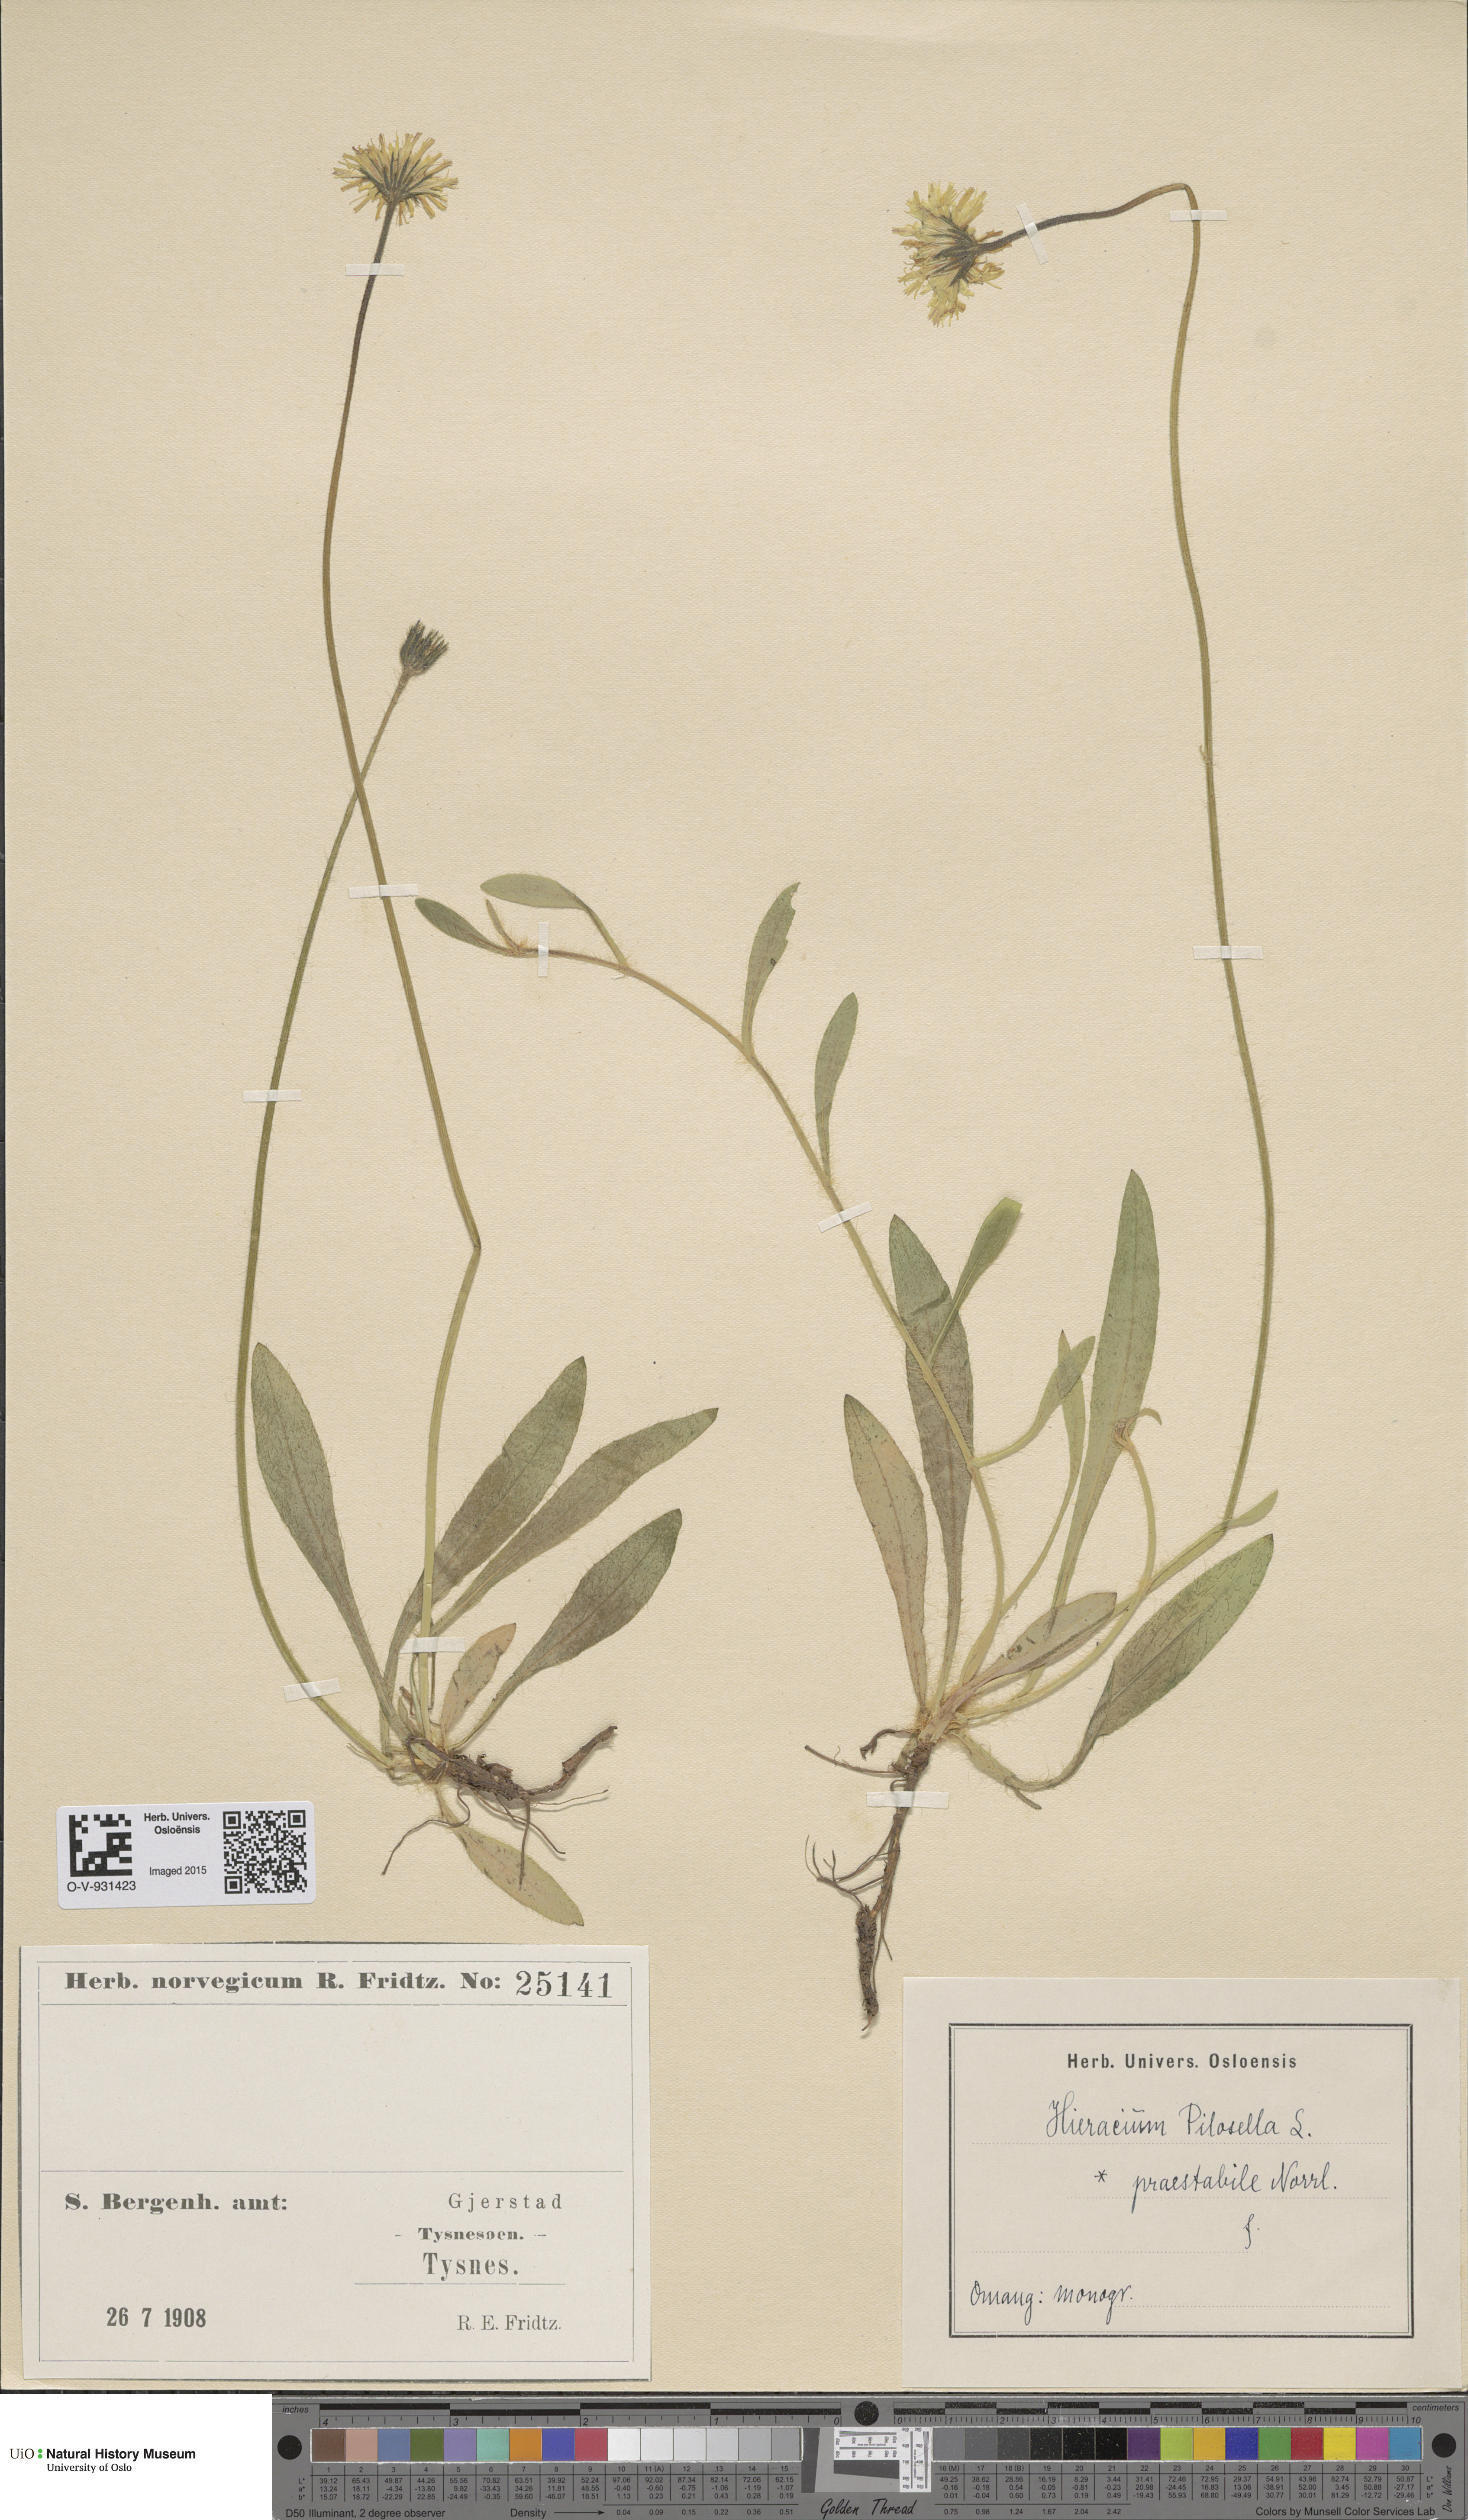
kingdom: Plantae
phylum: Tracheophyta
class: Magnoliopsida
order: Asterales
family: Asteraceae
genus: Pilosella
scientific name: Pilosella officinarum
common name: Mouse-ear hawkweed
